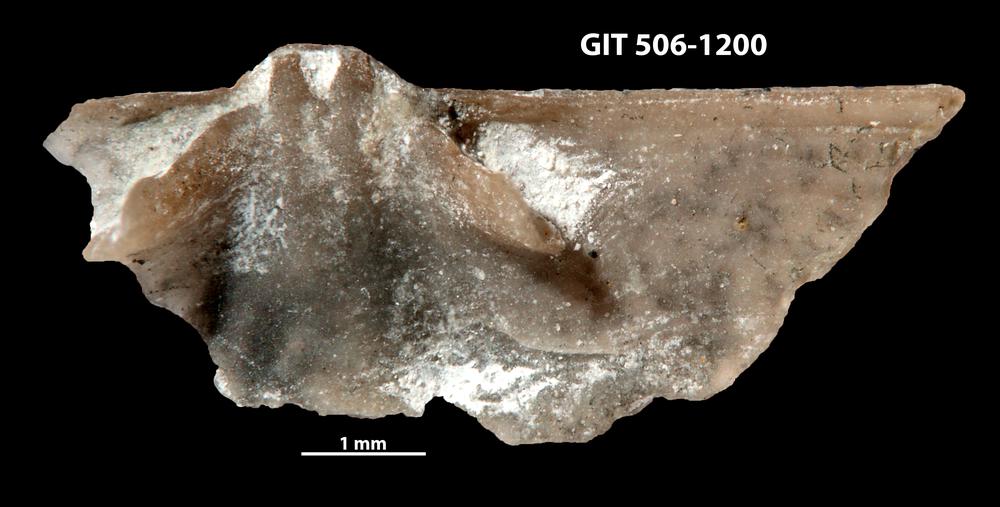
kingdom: Animalia
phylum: Brachiopoda
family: Chilidiopsidae
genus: Fardenia
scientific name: Fardenia Orthis applanata
